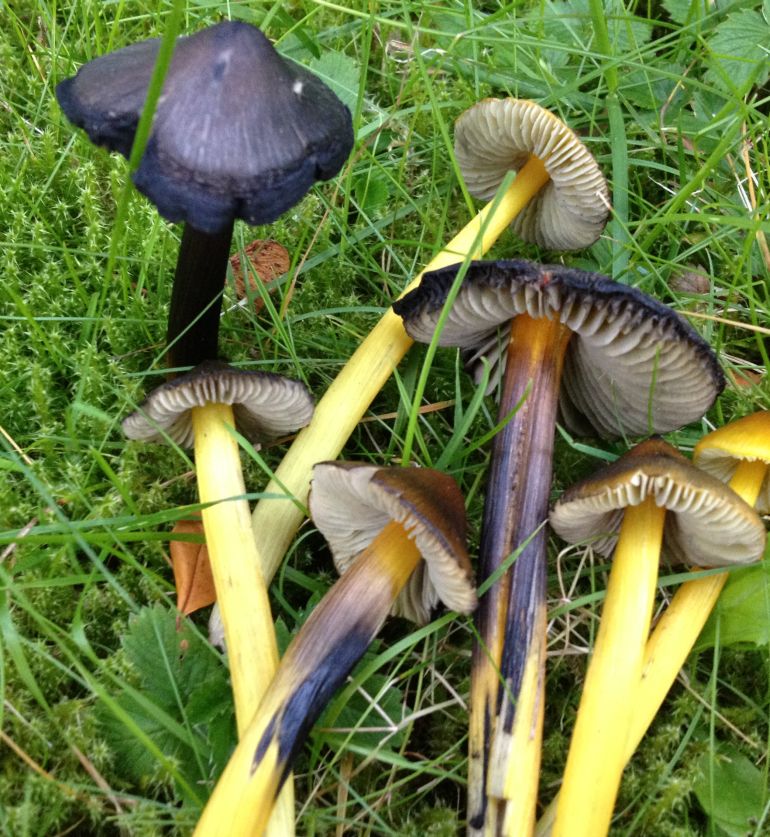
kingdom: Fungi
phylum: Basidiomycota
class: Agaricomycetes
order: Agaricales
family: Hygrophoraceae
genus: Hygrocybe
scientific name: Hygrocybe conica
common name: kegle-vokshat
